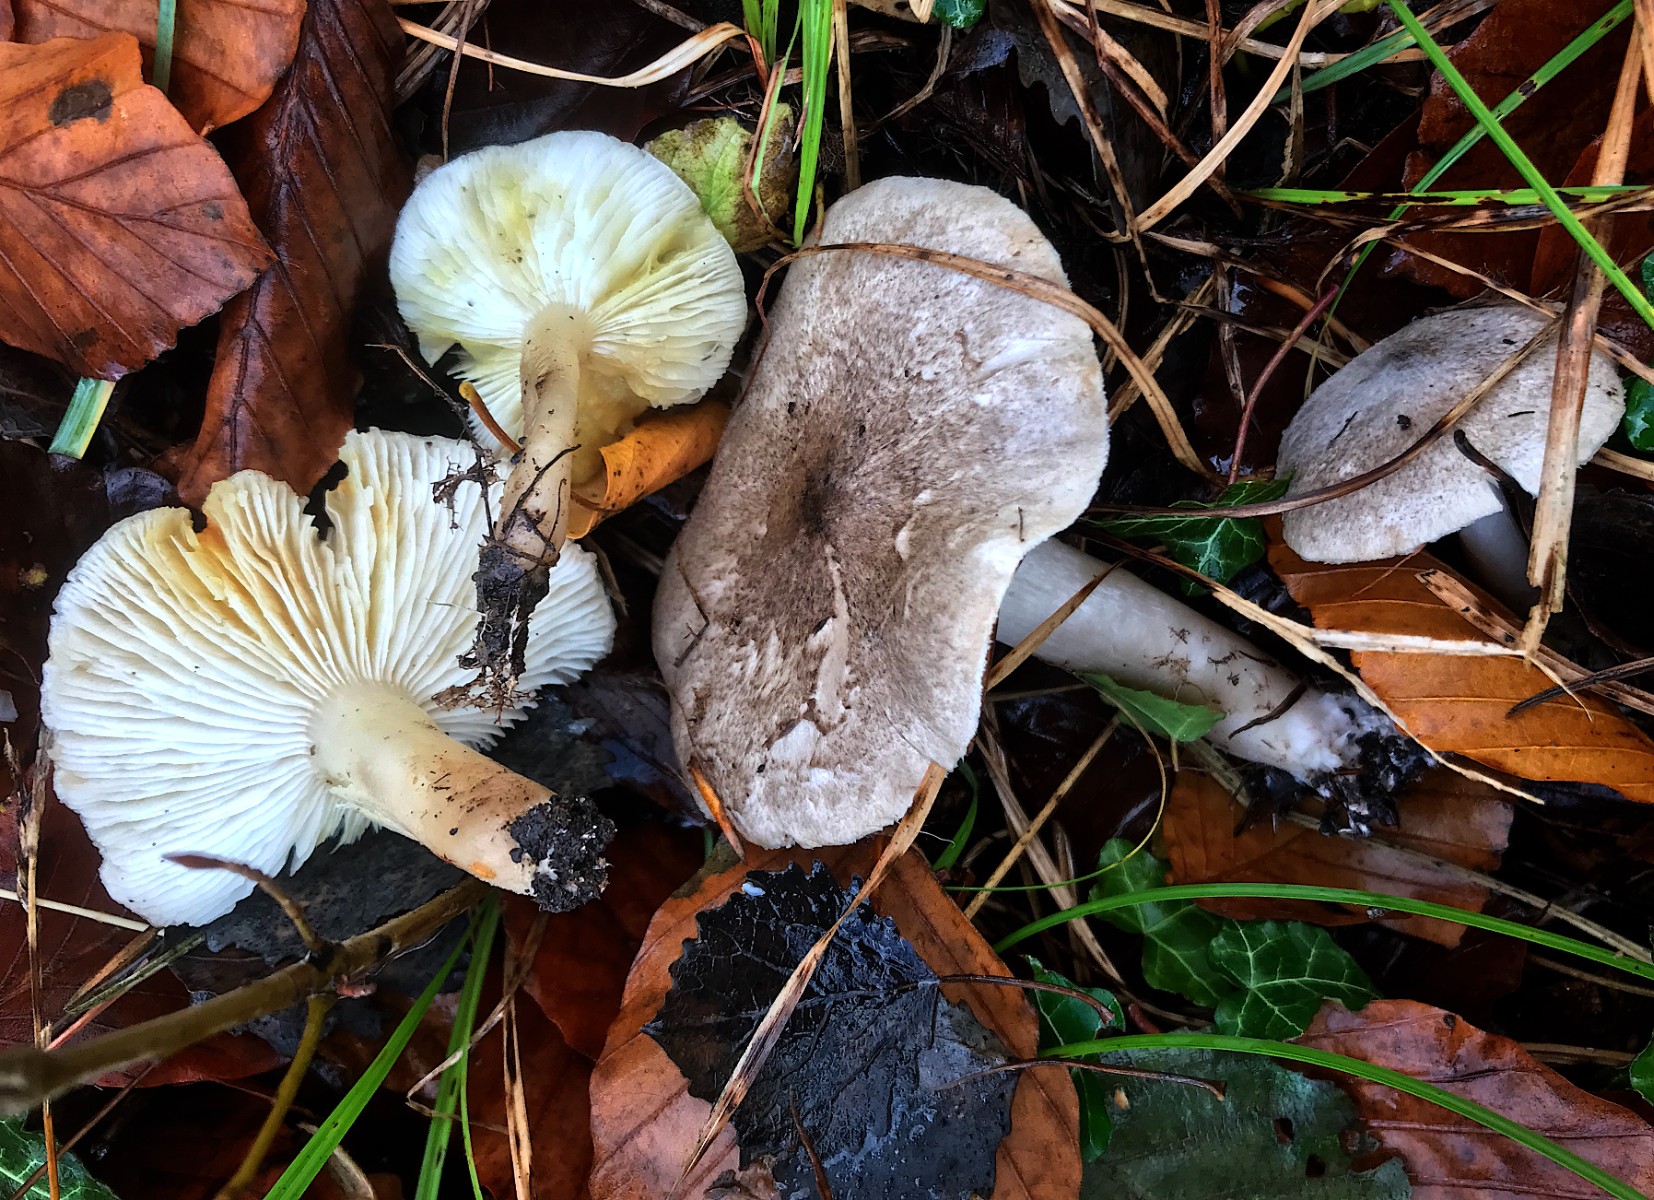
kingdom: Fungi
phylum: Basidiomycota
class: Agaricomycetes
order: Agaricales
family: Tricholomataceae
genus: Tricholoma
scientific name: Tricholoma scalpturatum
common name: gulplettet ridderhat
